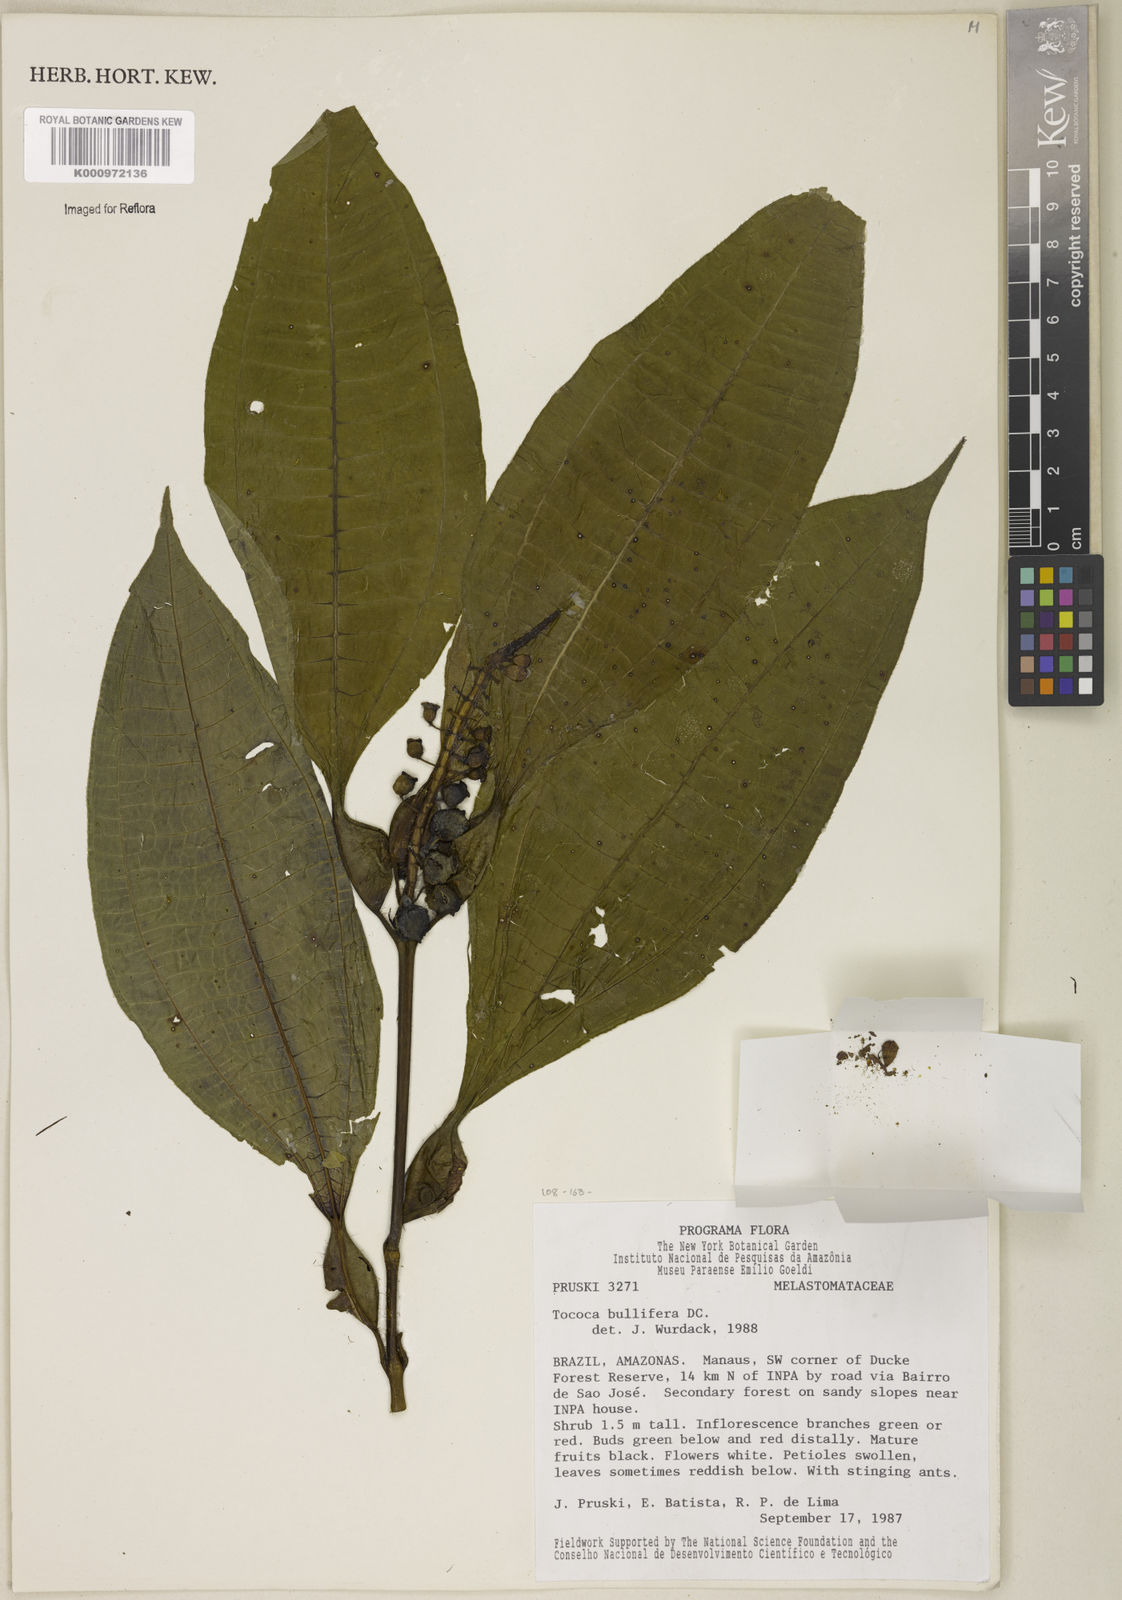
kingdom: Plantae
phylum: Tracheophyta
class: Magnoliopsida
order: Myrtales
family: Melastomataceae
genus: Miconia
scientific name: Miconia bullifera
